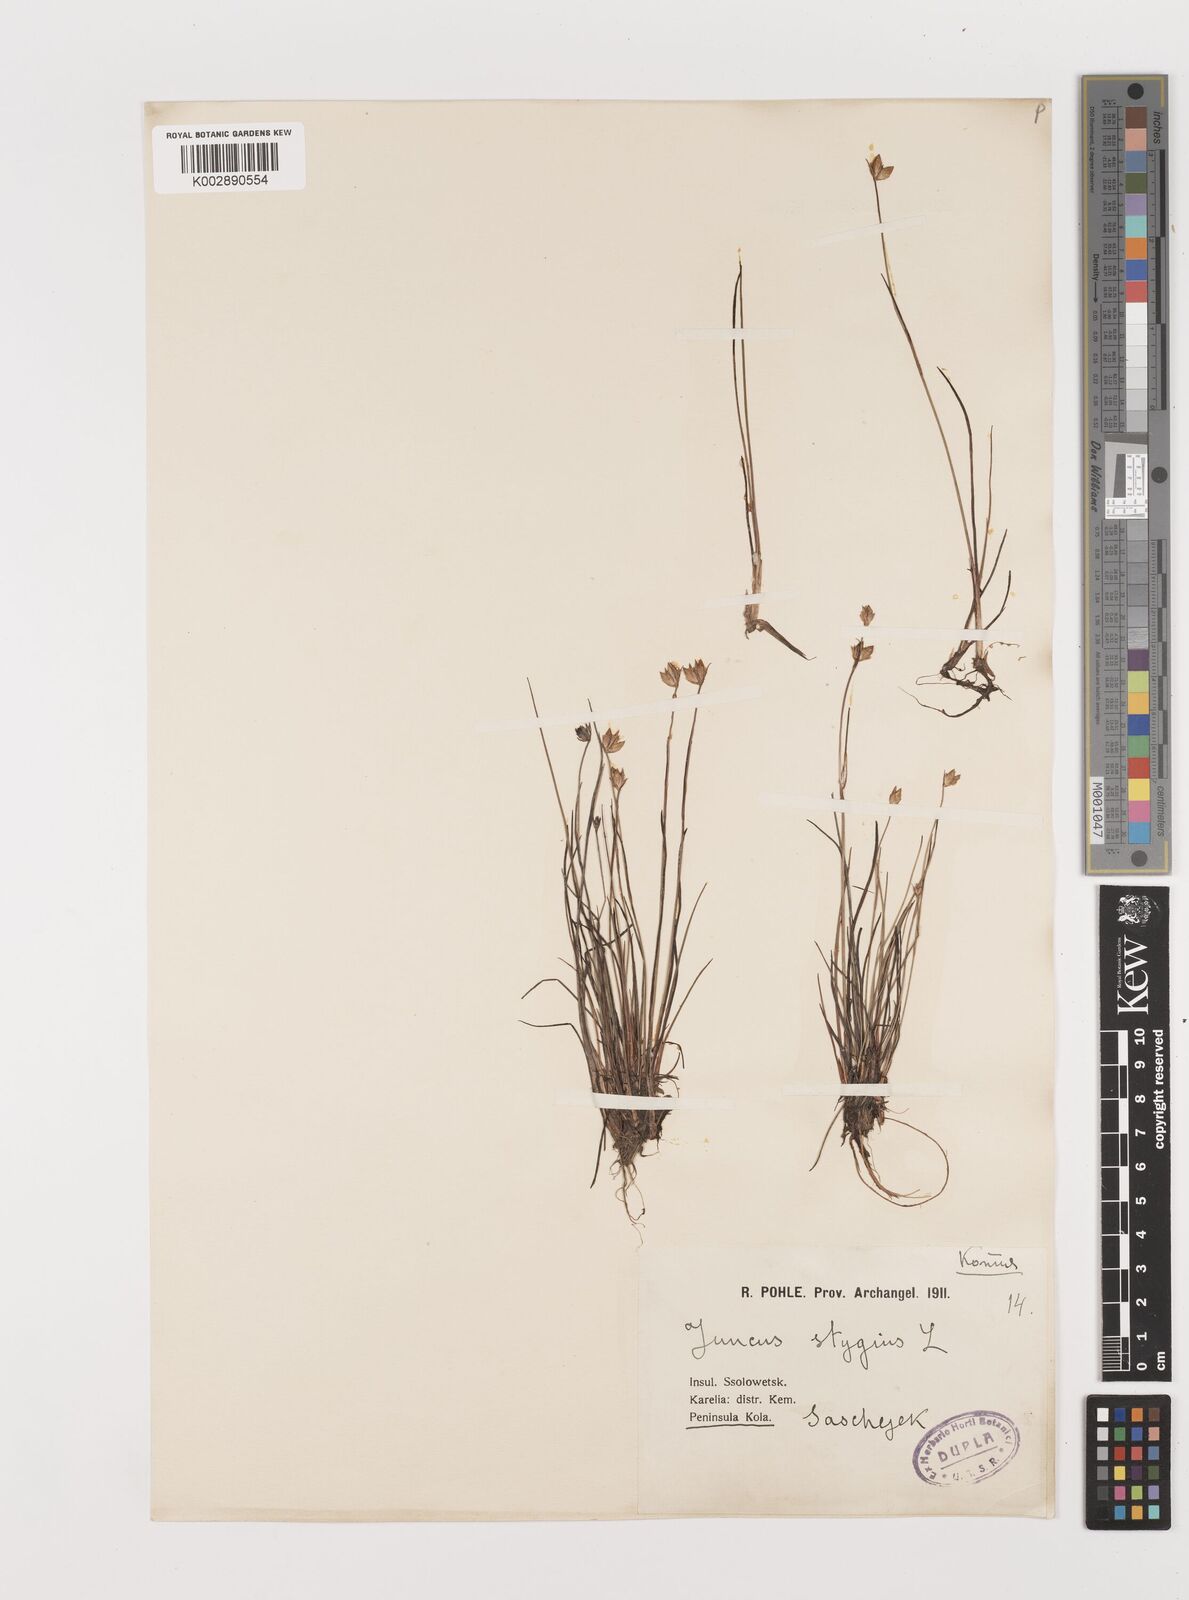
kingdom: Plantae
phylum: Tracheophyta
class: Liliopsida
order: Poales
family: Juncaceae
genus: Juncus
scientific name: Juncus stygius
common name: Bog rush
